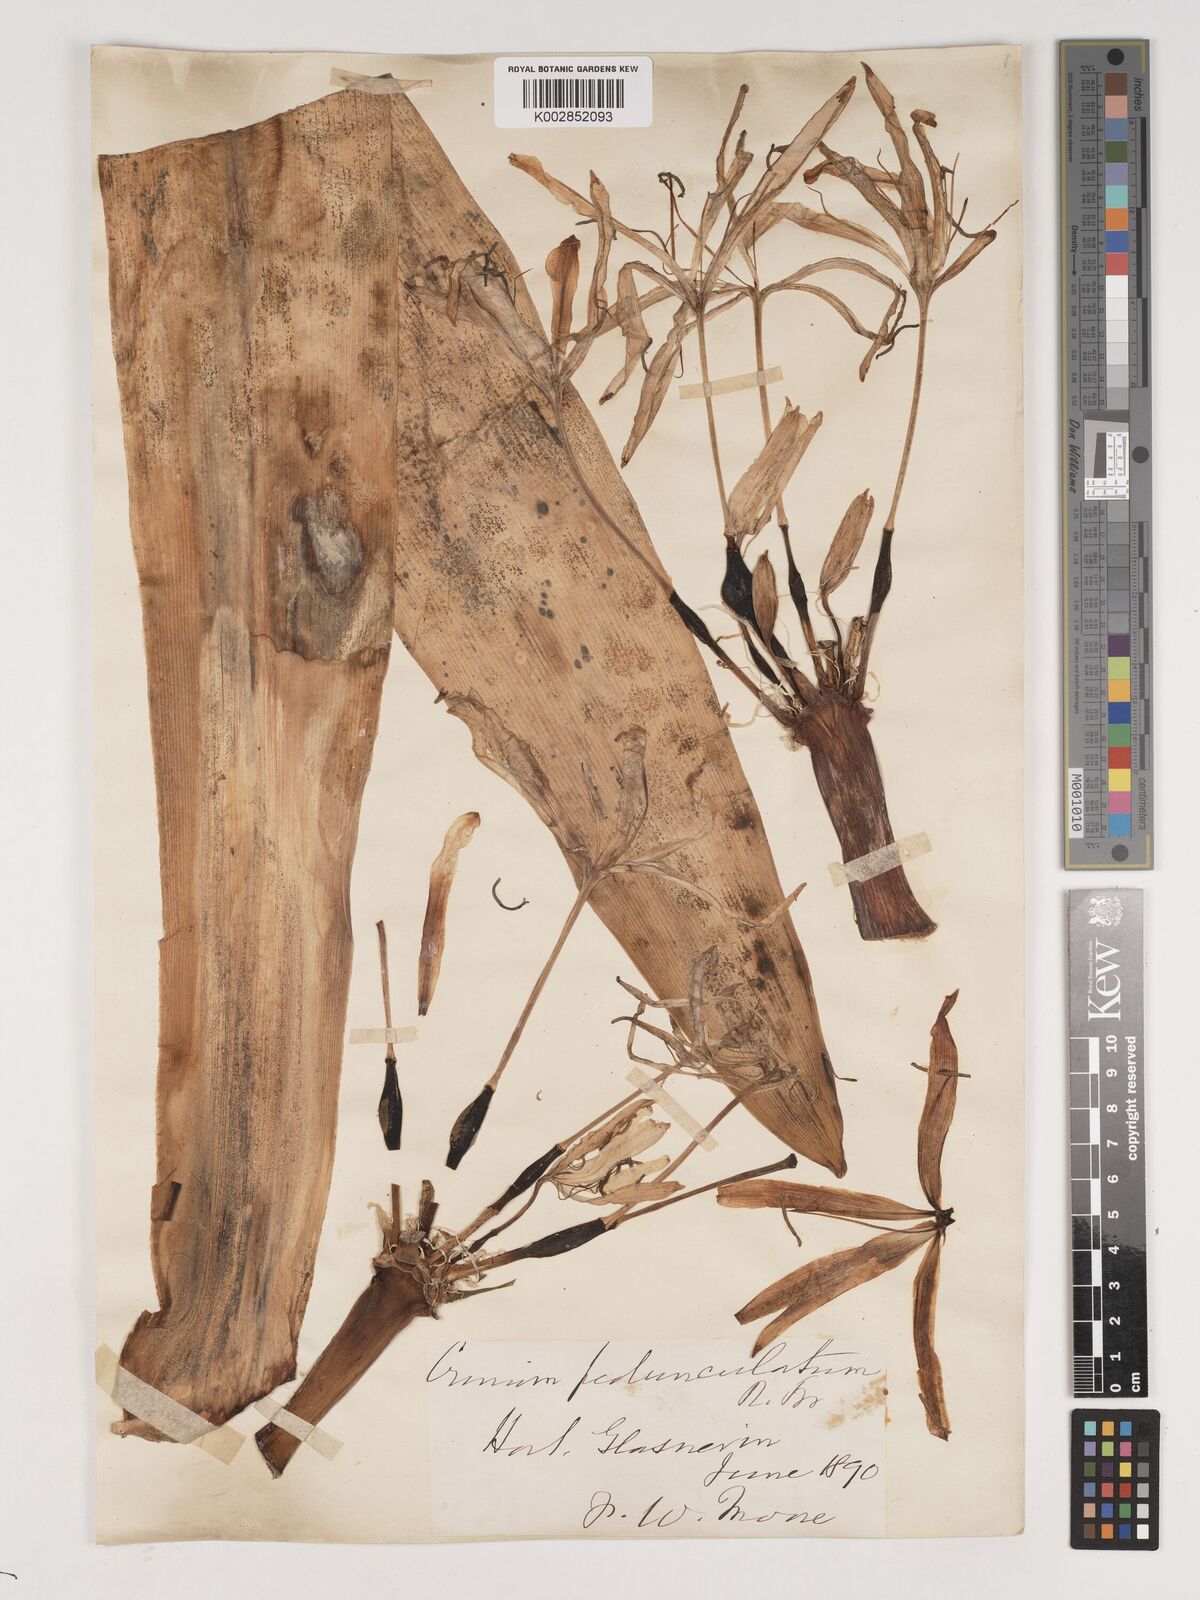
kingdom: Plantae
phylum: Tracheophyta
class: Liliopsida
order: Asparagales
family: Amaryllidaceae
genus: Crinum
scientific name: Crinum asiaticum
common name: Poisonbulb
